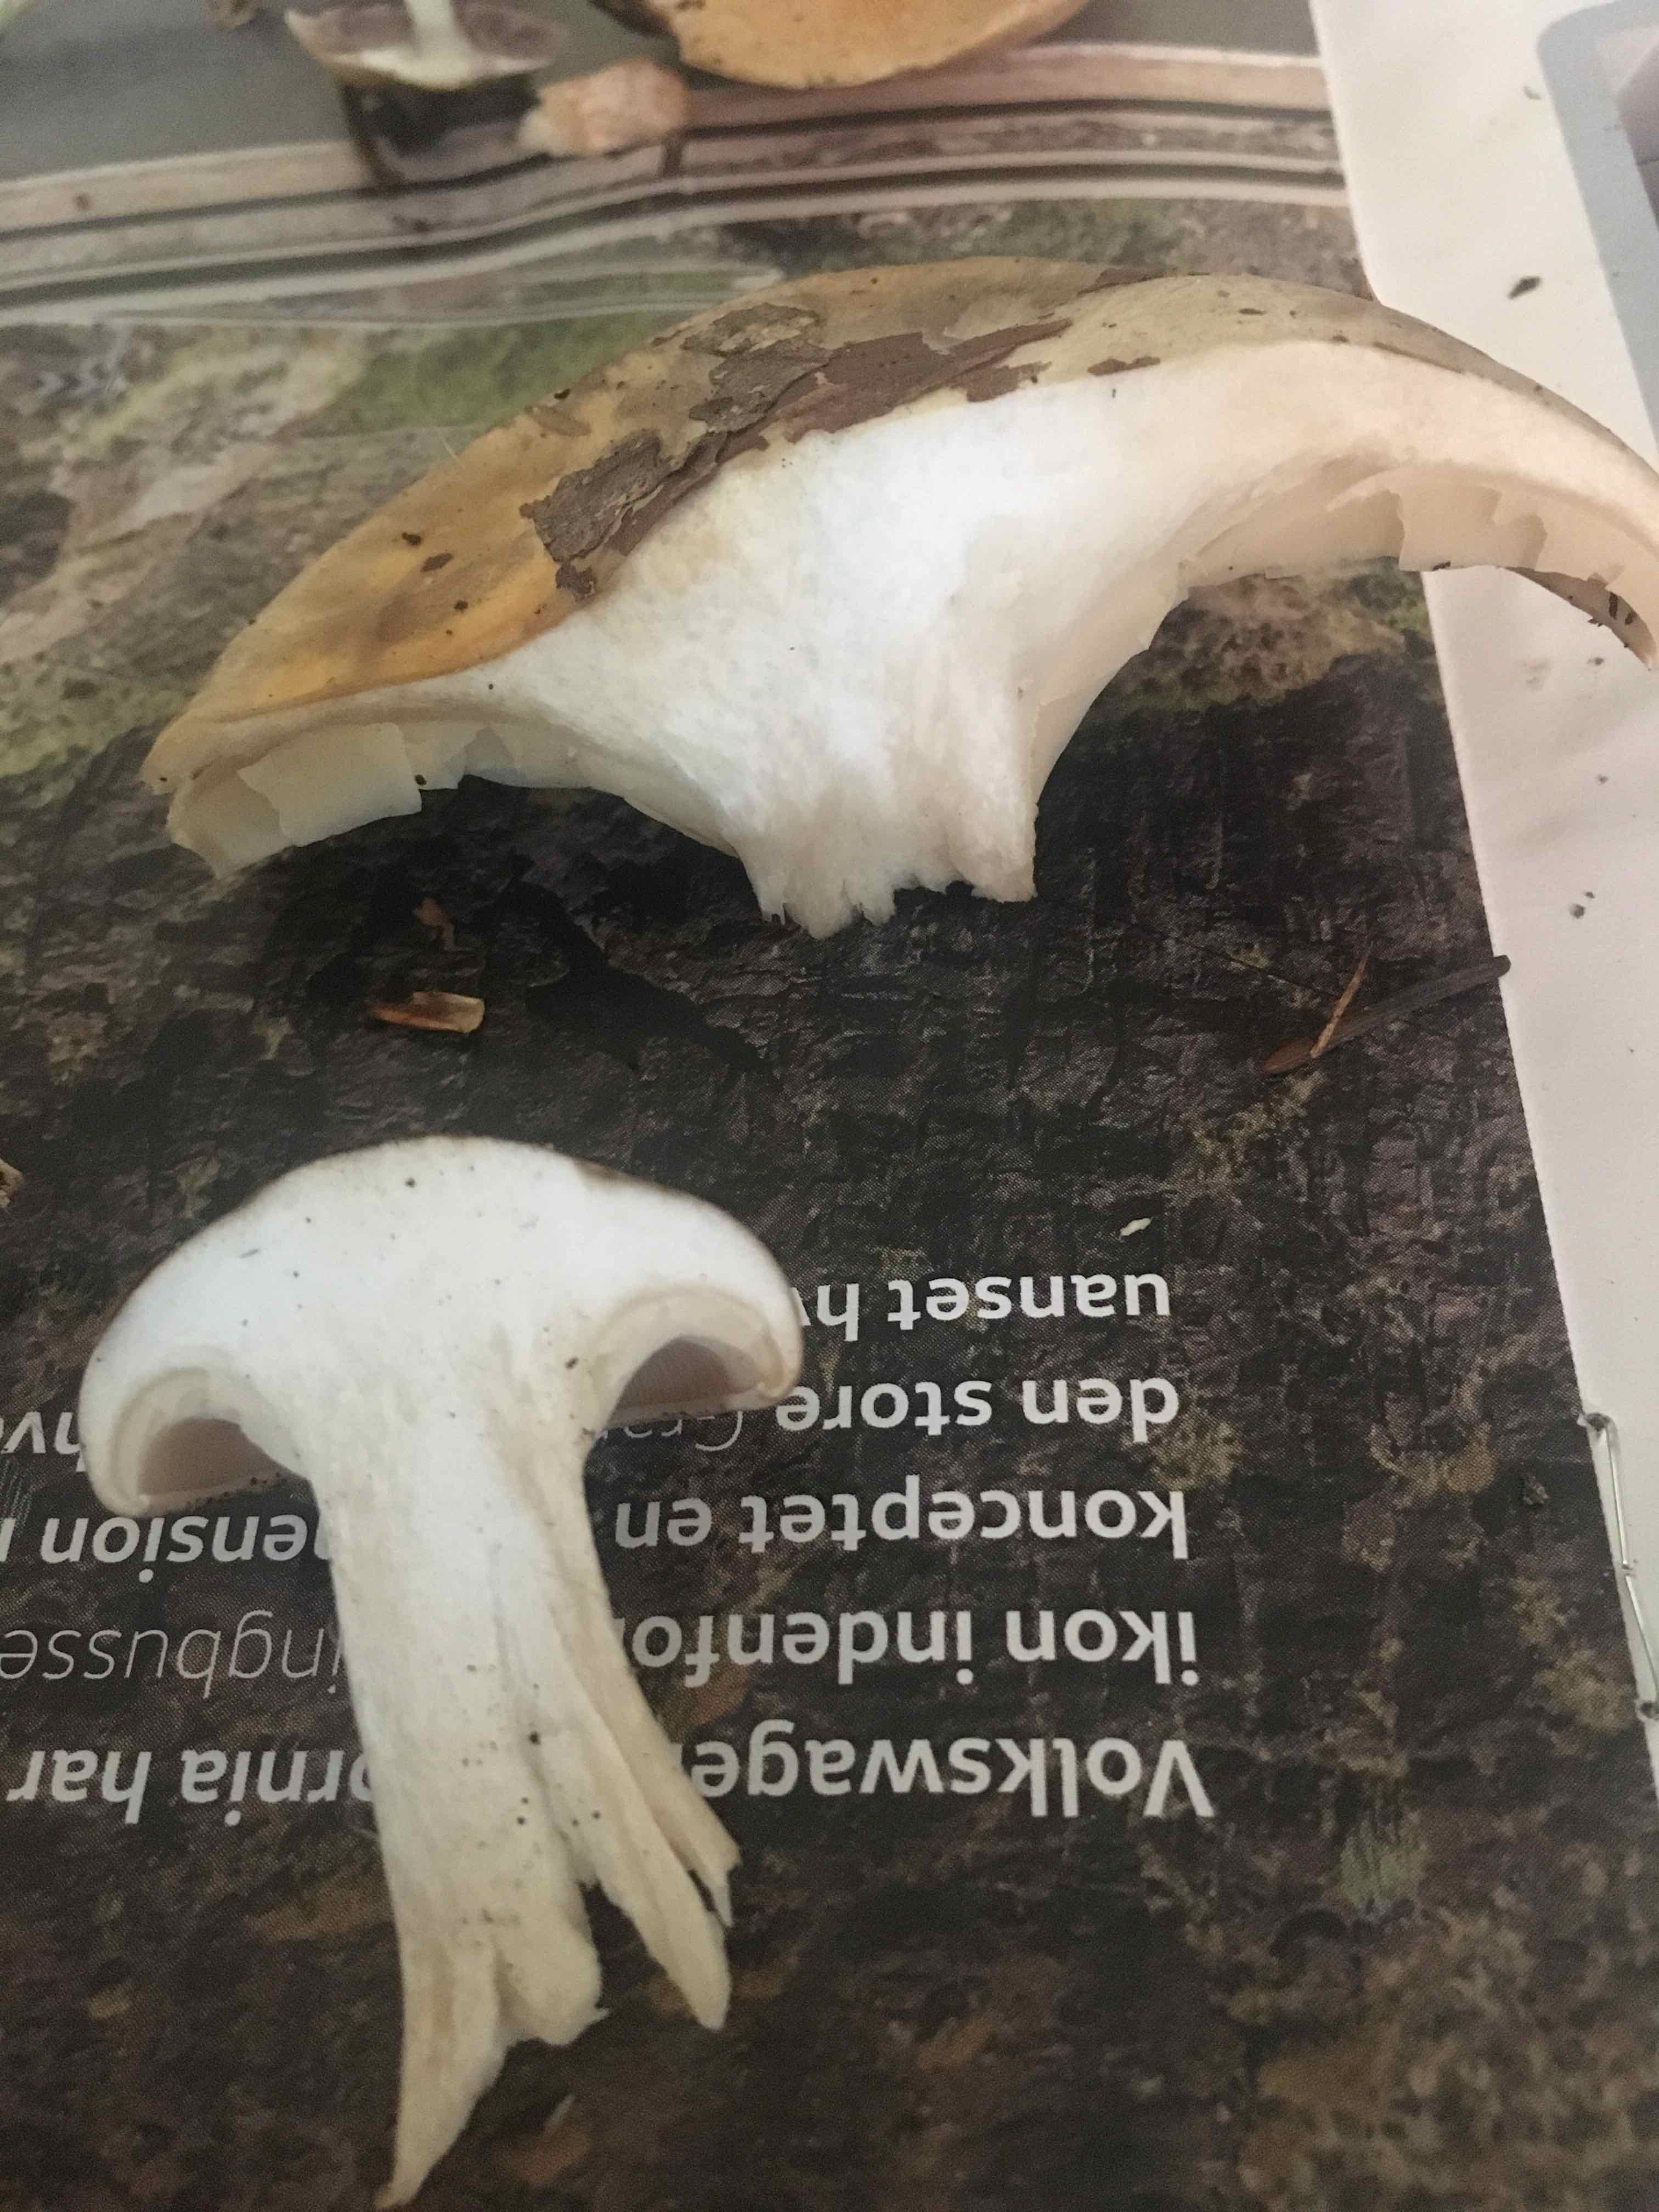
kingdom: Fungi
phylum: Basidiomycota
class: Agaricomycetes
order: Agaricales
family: Tricholomataceae
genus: Clitocybe
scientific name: Clitocybe nebularis
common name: tåge-tragthat
